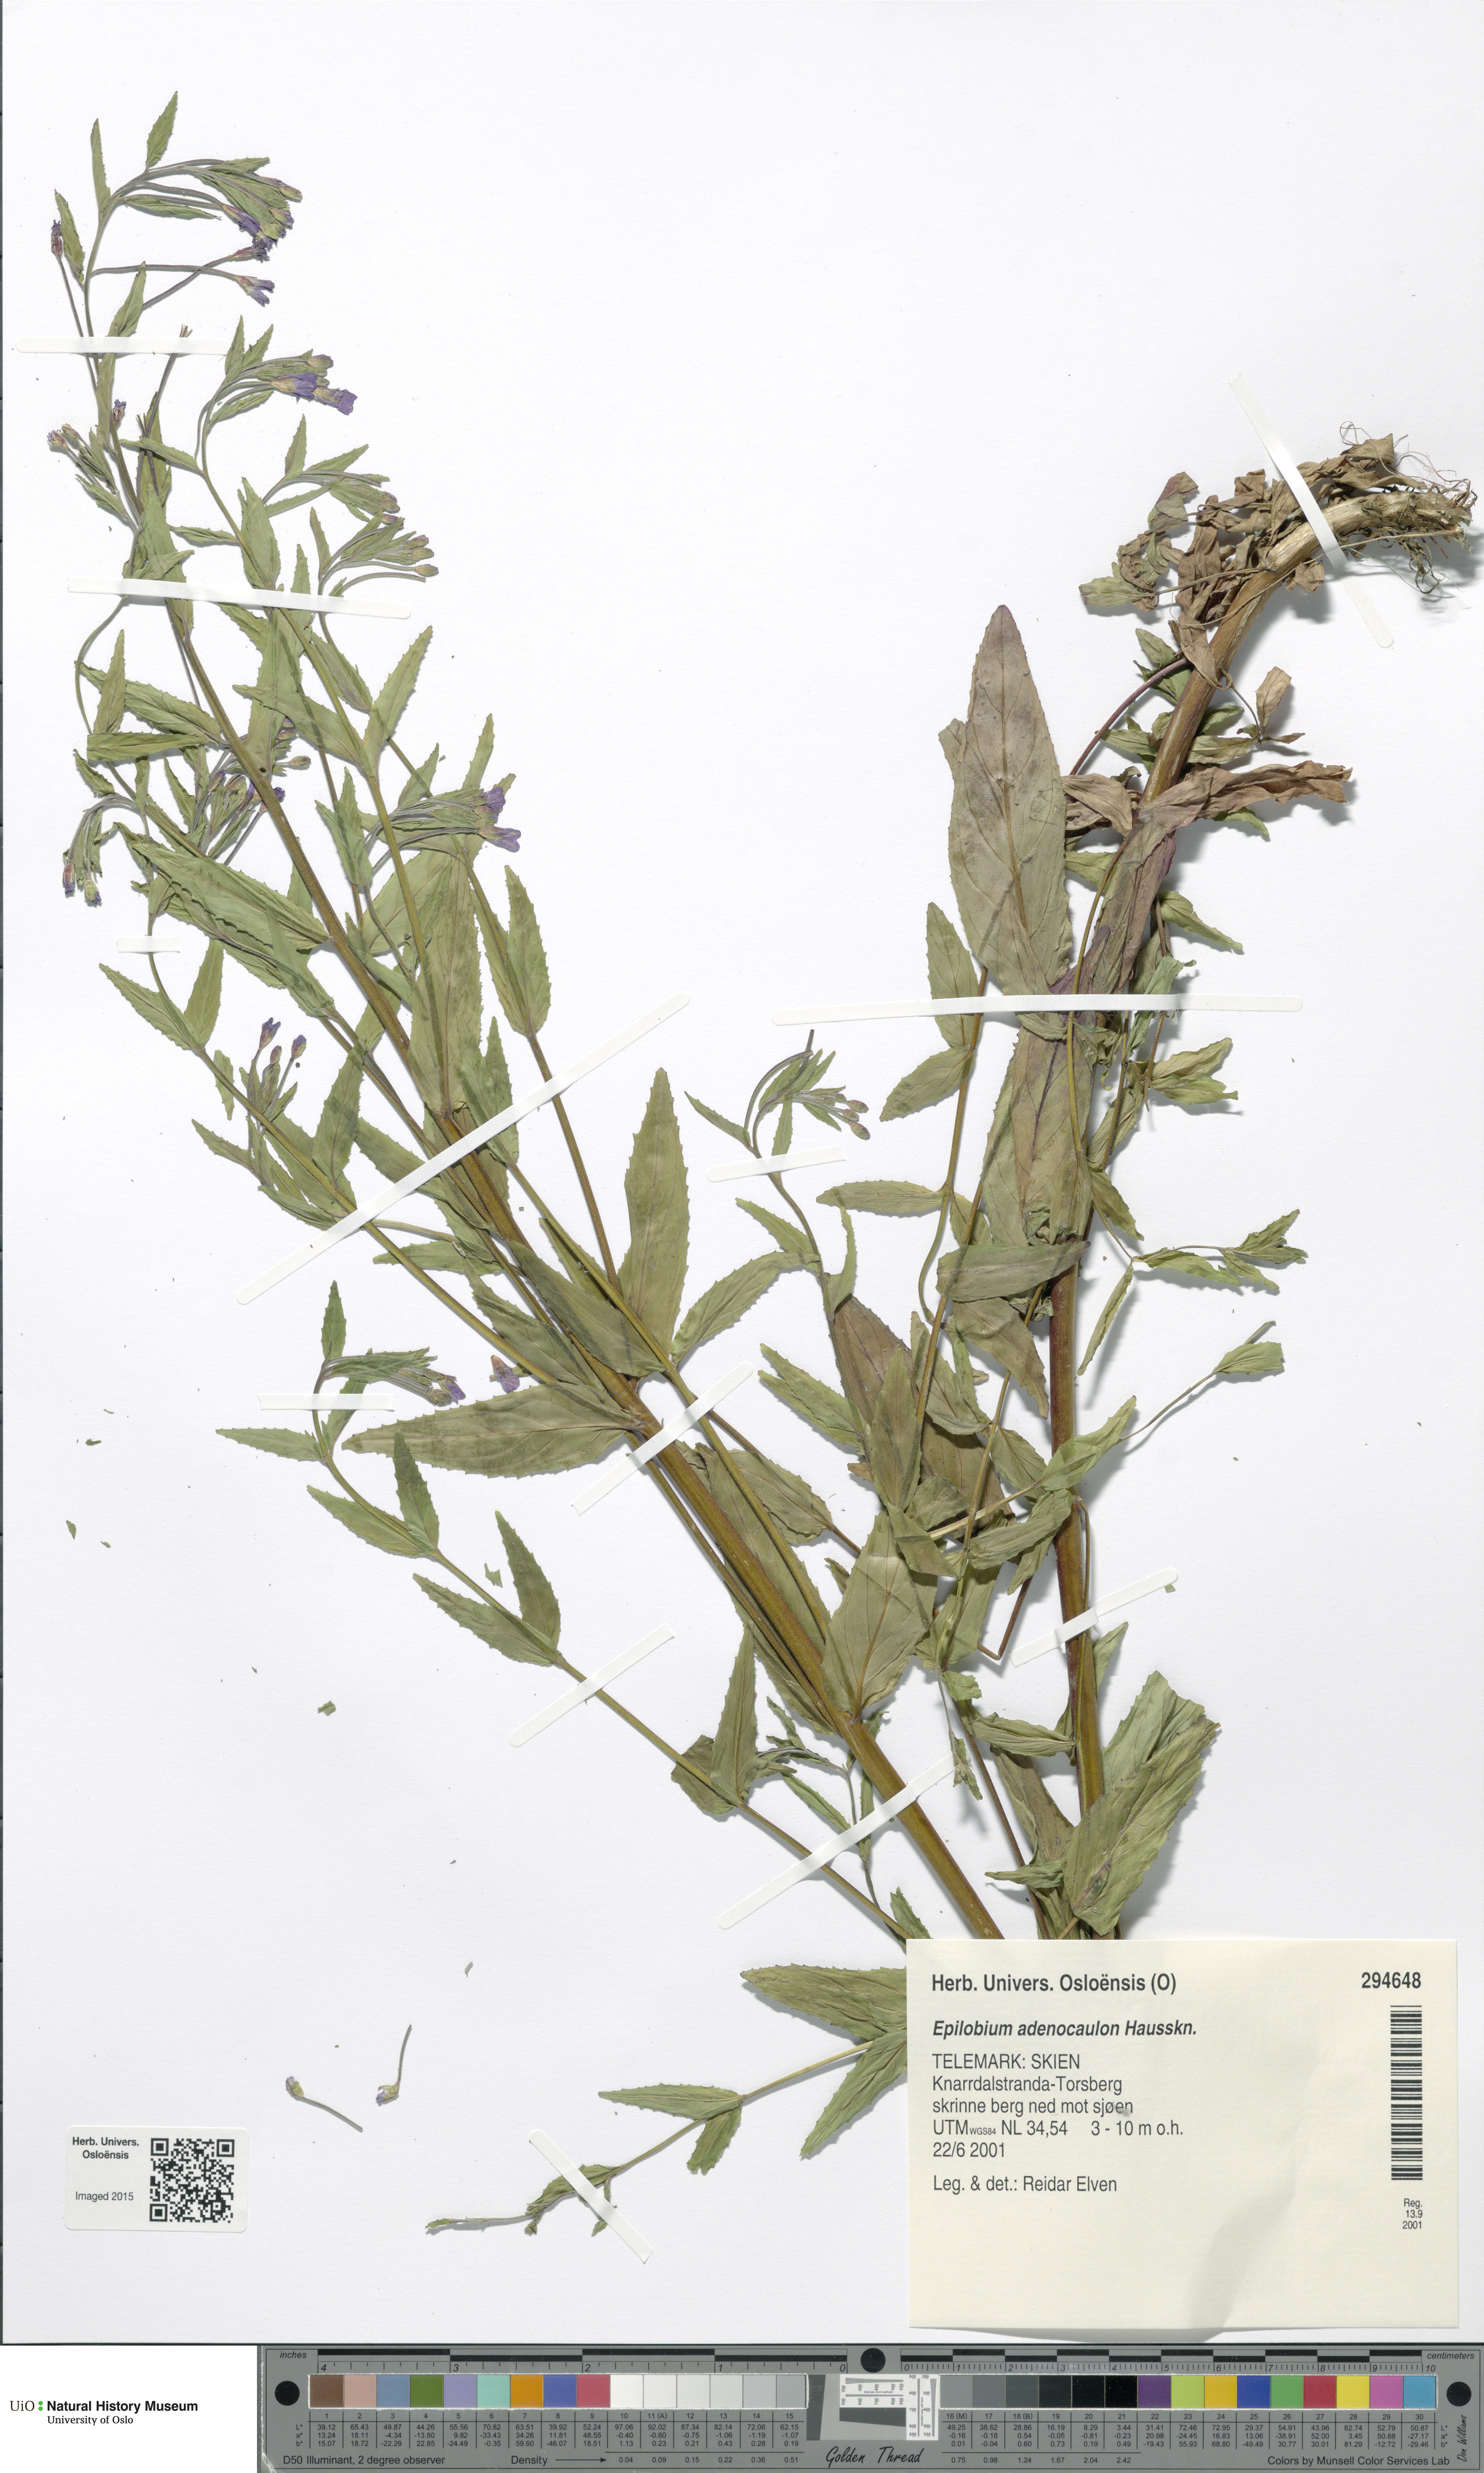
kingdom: Plantae
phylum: Tracheophyta
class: Magnoliopsida
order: Myrtales
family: Onagraceae
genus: Epilobium
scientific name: Epilobium ciliatum
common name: American willowherb
